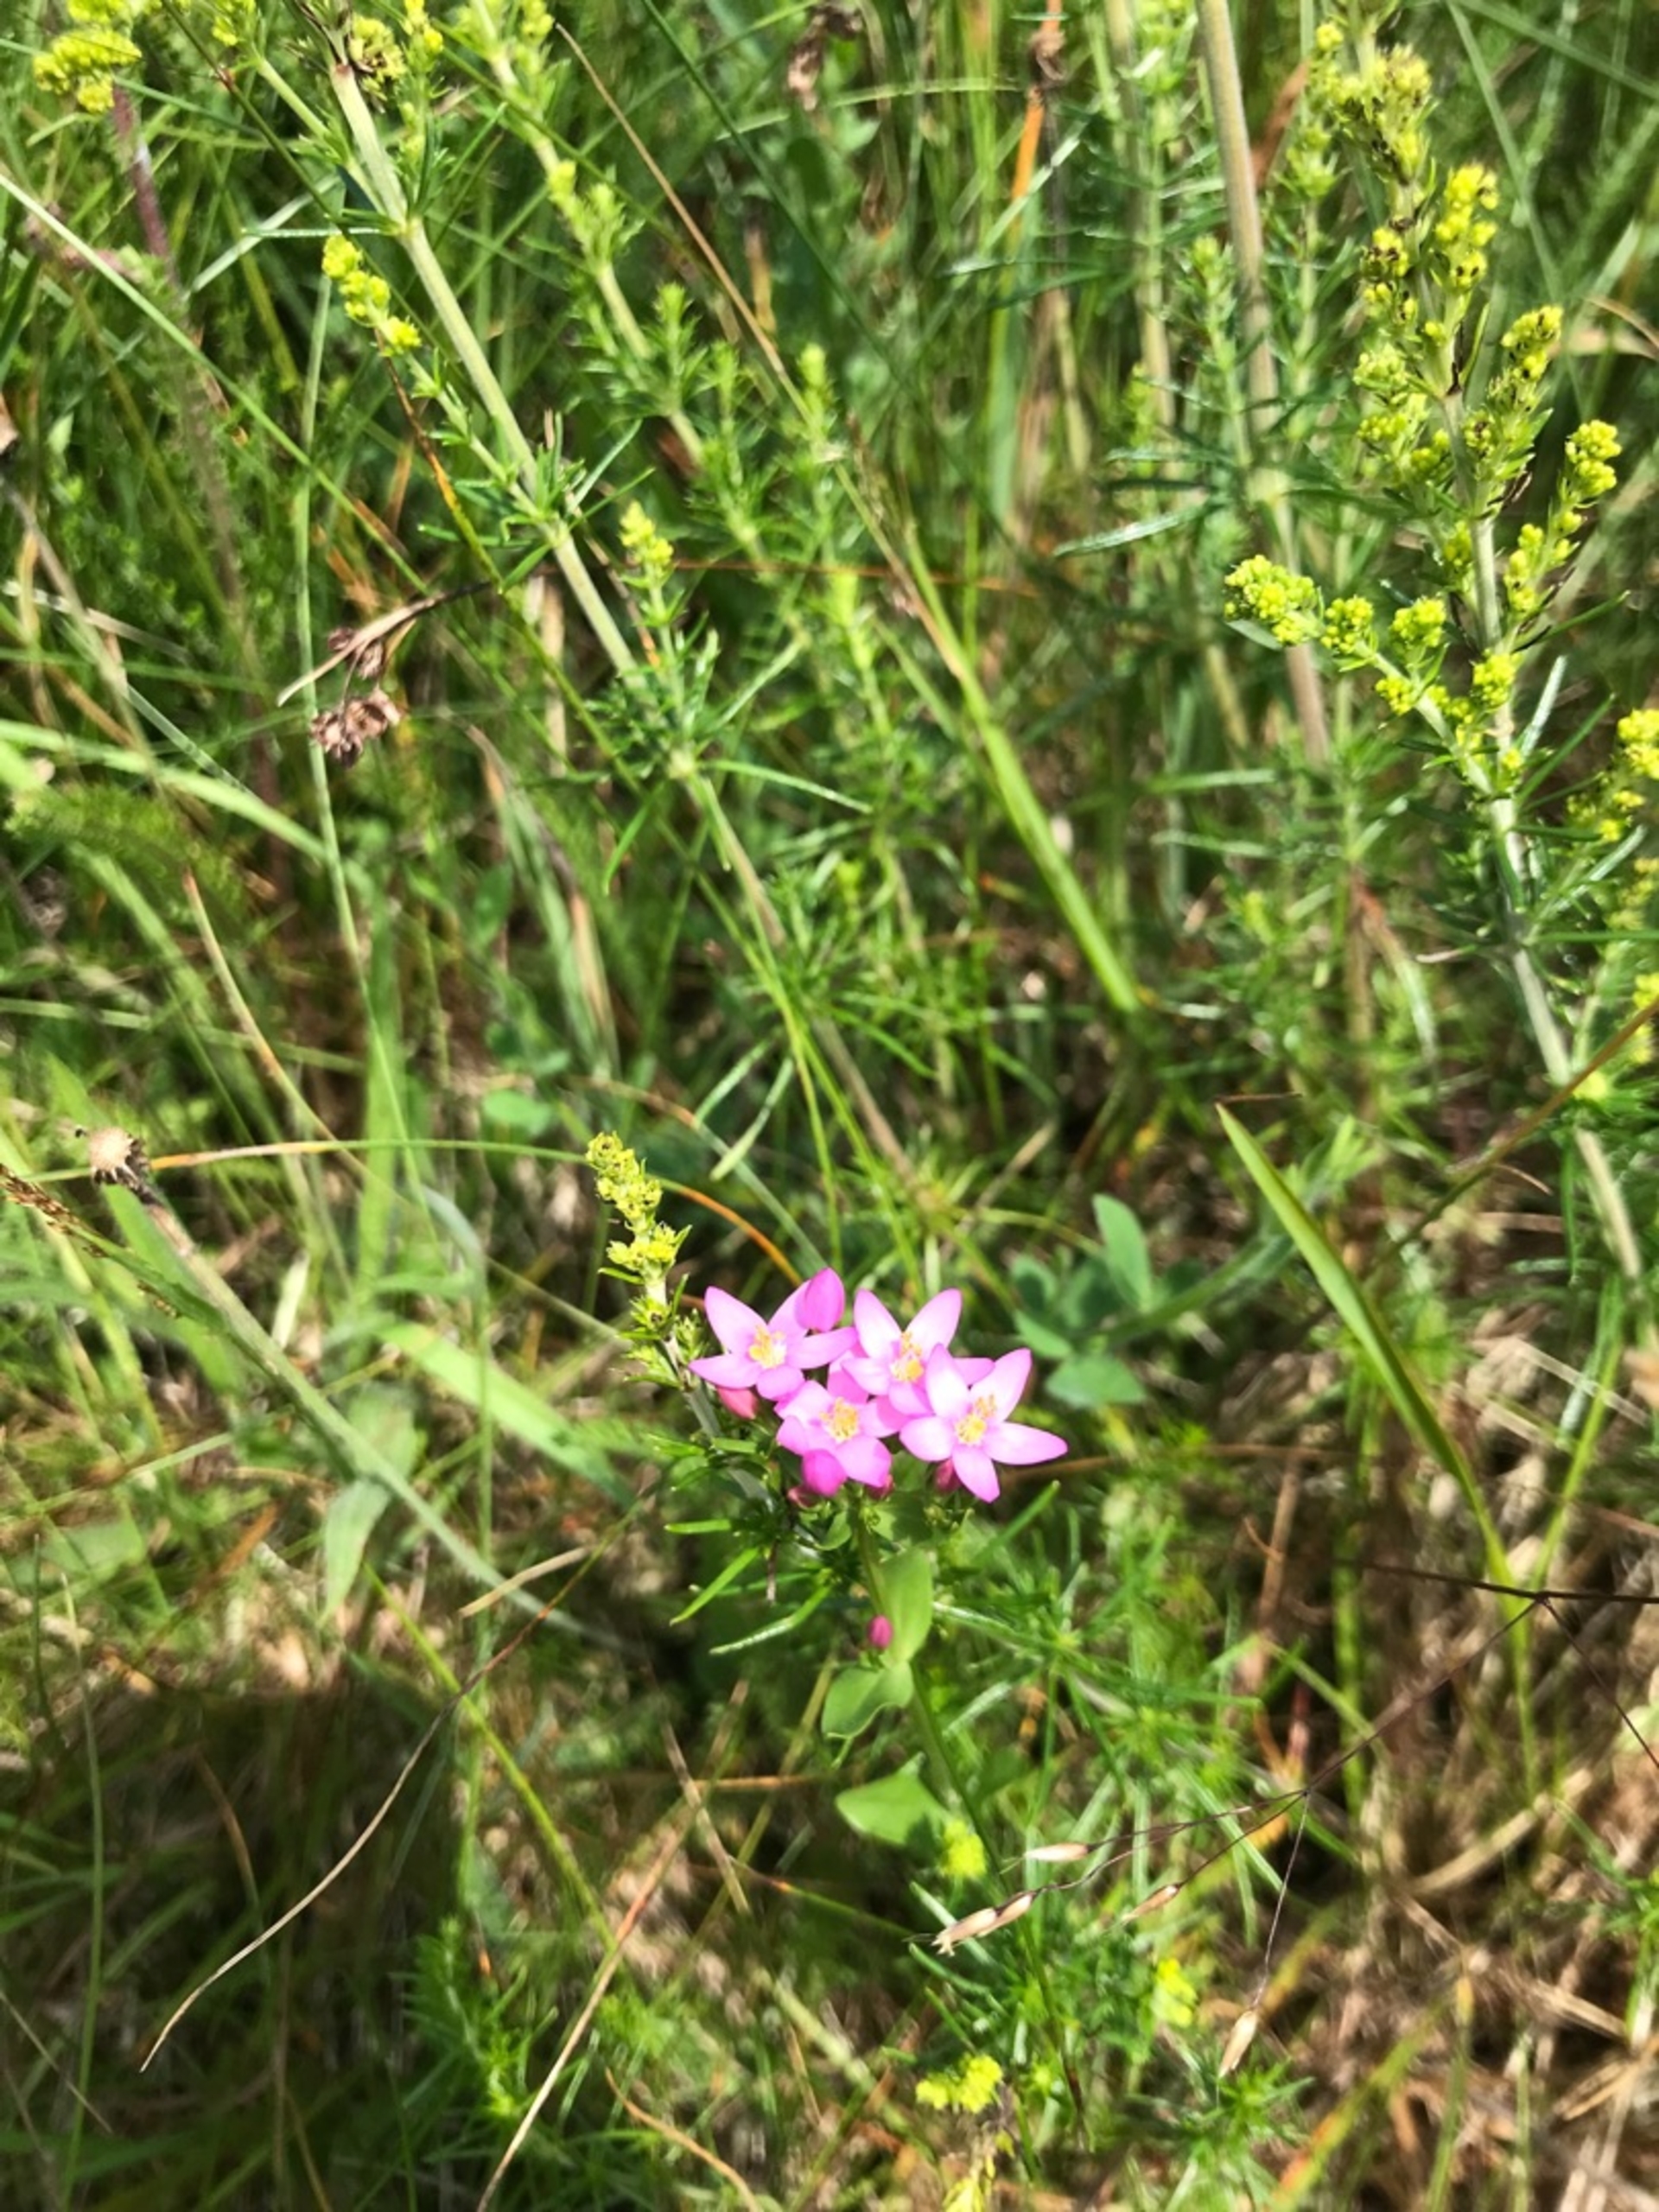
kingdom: Plantae
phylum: Tracheophyta
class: Magnoliopsida
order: Gentianales
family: Gentianaceae
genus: Centaurium
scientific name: Centaurium erythraea
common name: Mark-tusindgylden
